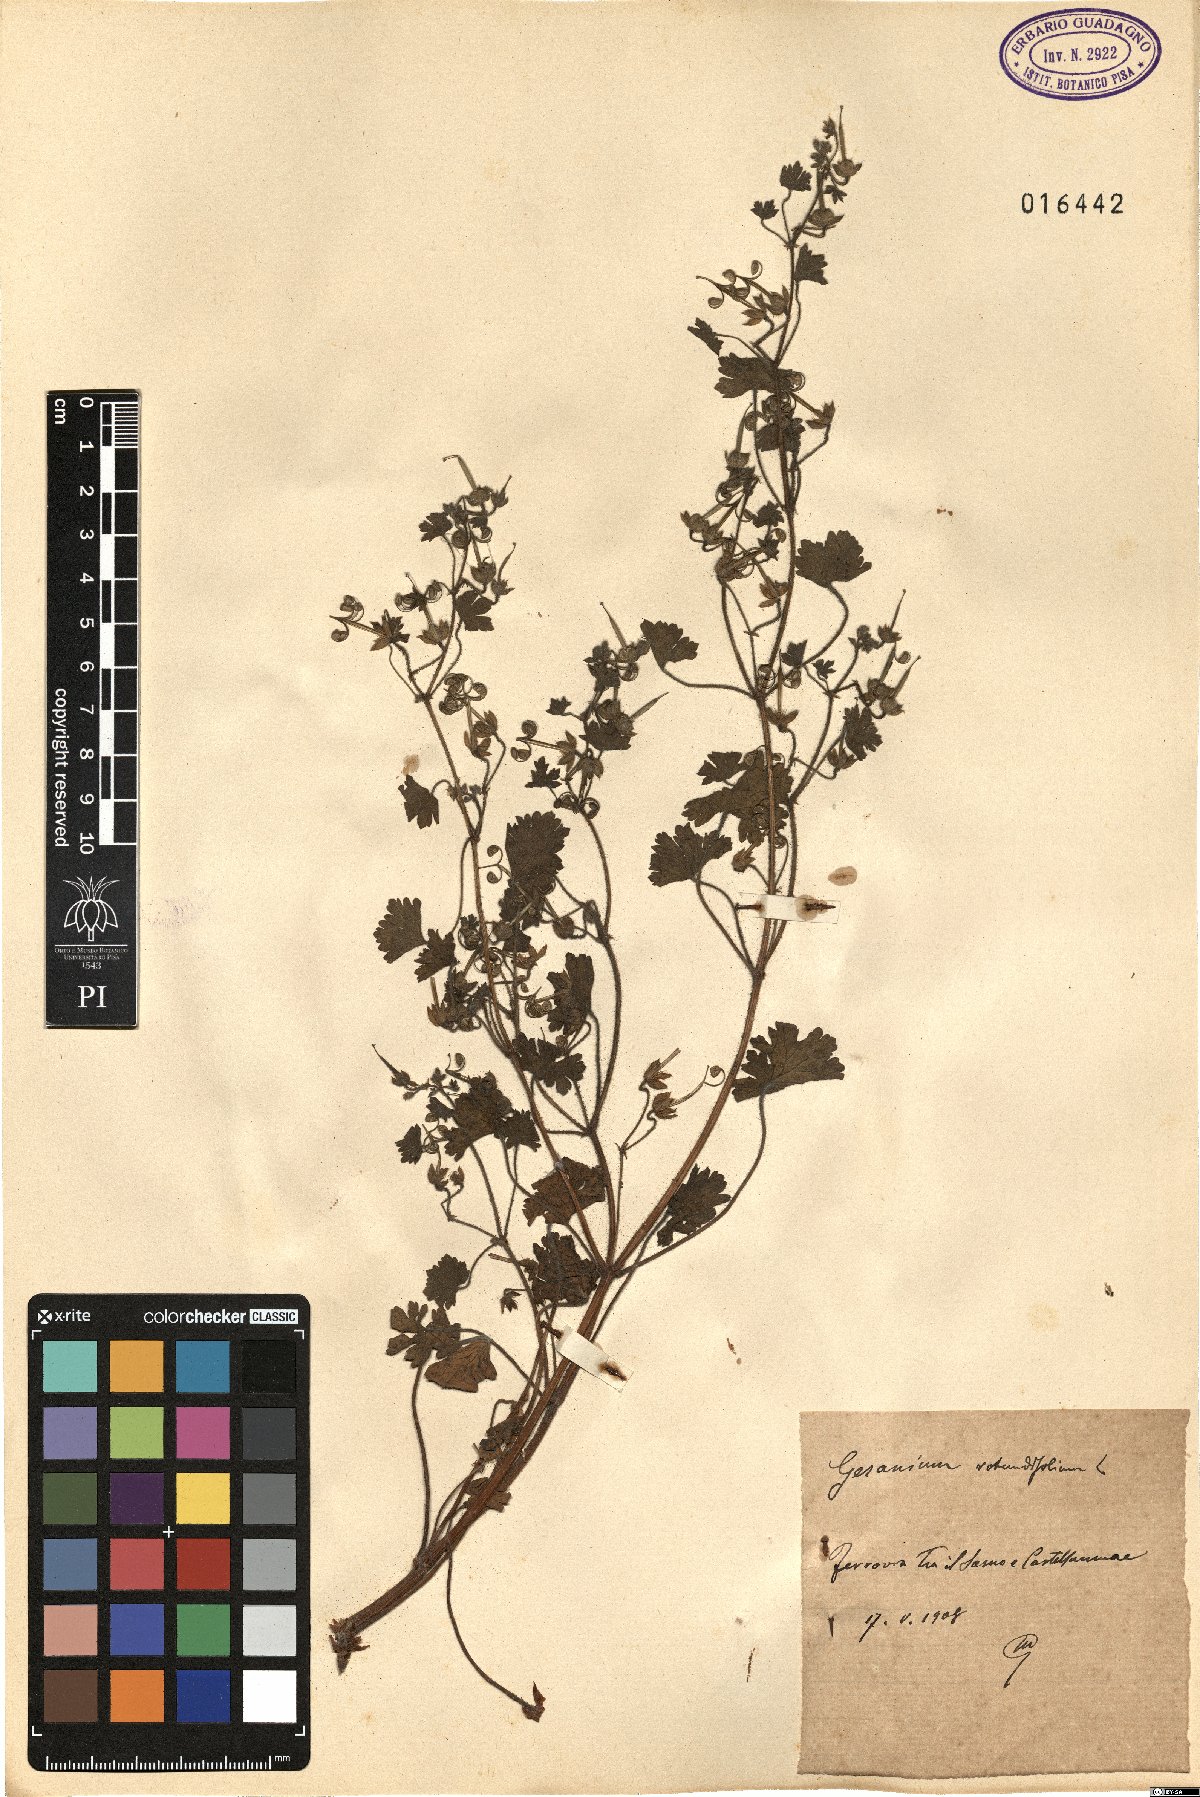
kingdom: Plantae
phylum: Tracheophyta
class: Magnoliopsida
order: Geraniales
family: Geraniaceae
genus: Geranium
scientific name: Geranium rotundifolium
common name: Round-leaved crane's-bill
